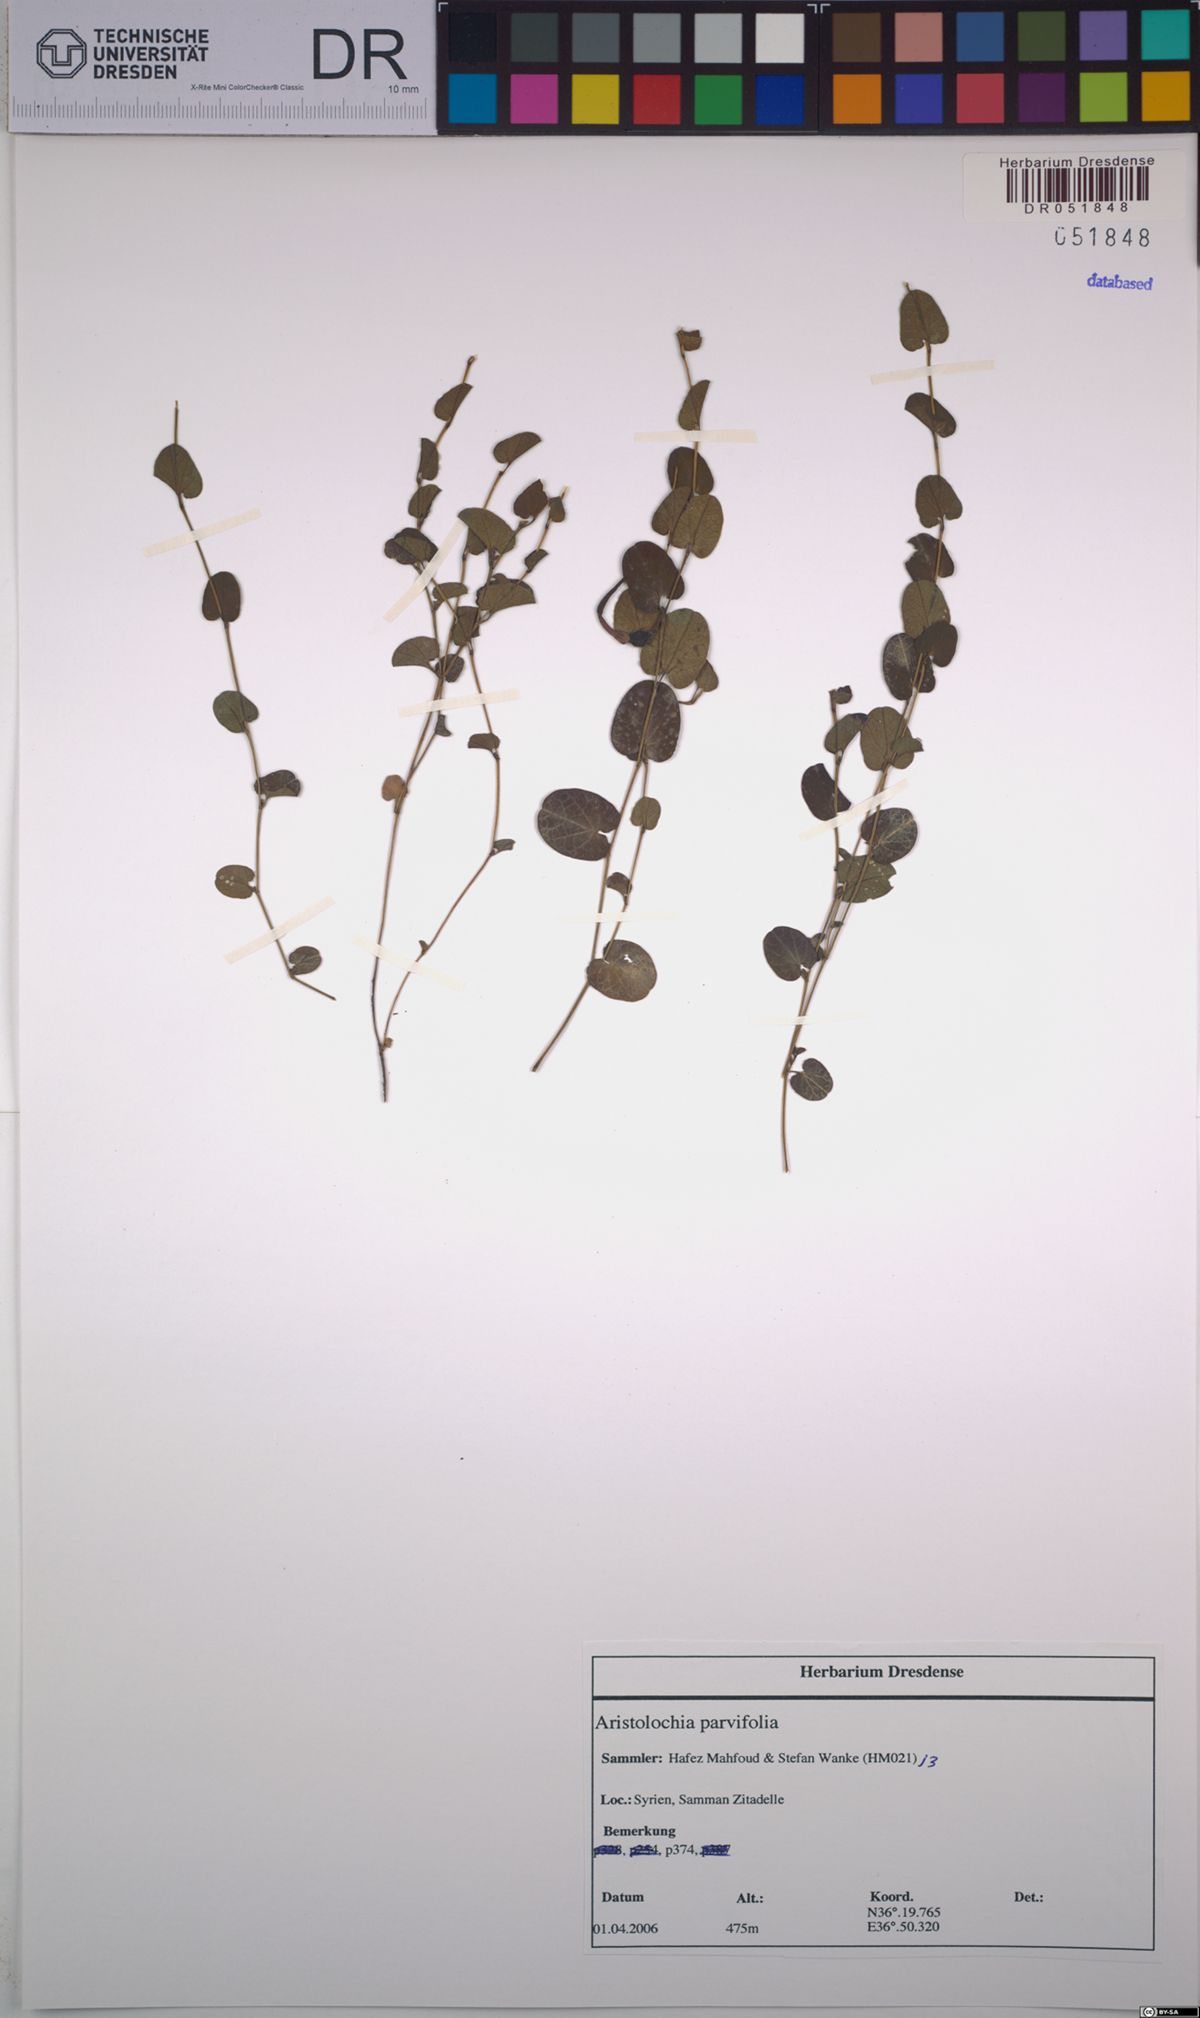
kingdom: Plantae
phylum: Tracheophyta
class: Magnoliopsida
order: Piperales
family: Aristolochiaceae
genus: Aristolochia
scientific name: Aristolochia parvifolia
